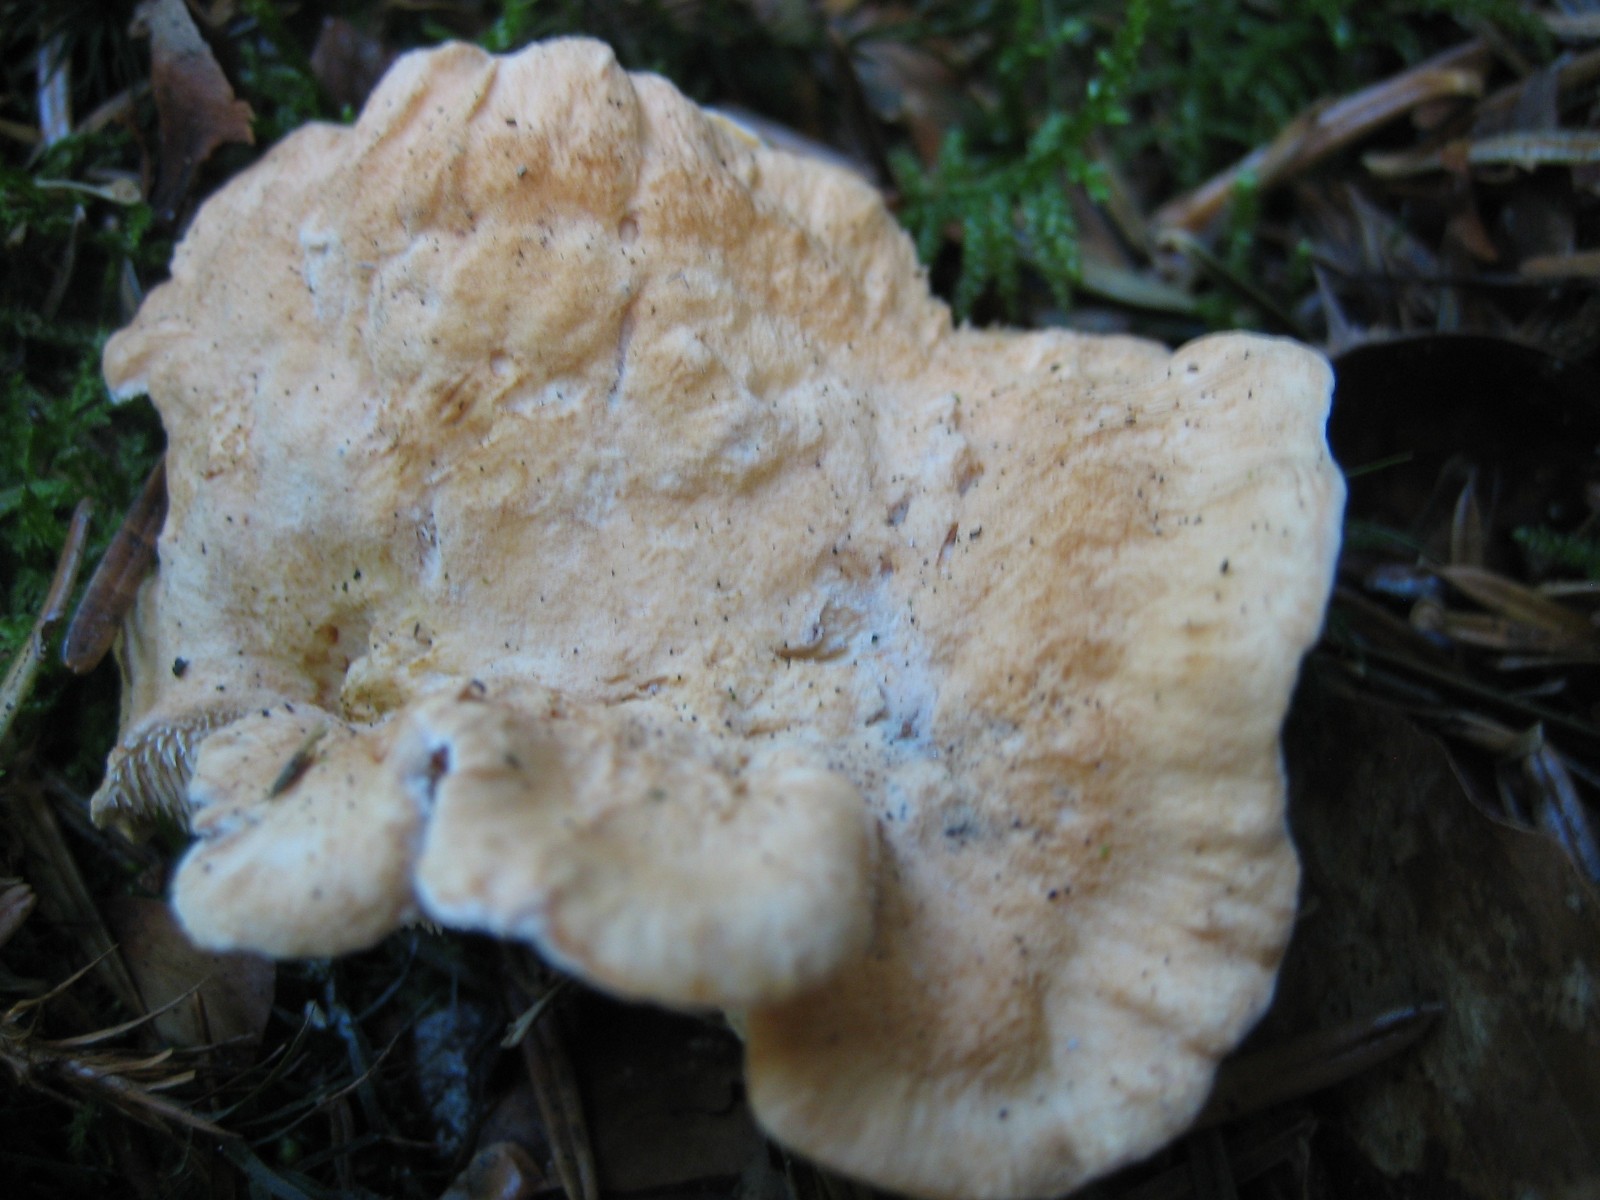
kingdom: Fungi
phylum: Basidiomycota
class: Agaricomycetes
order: Cantharellales
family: Hydnaceae
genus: Hydnum
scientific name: Hydnum
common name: pigsvamp
